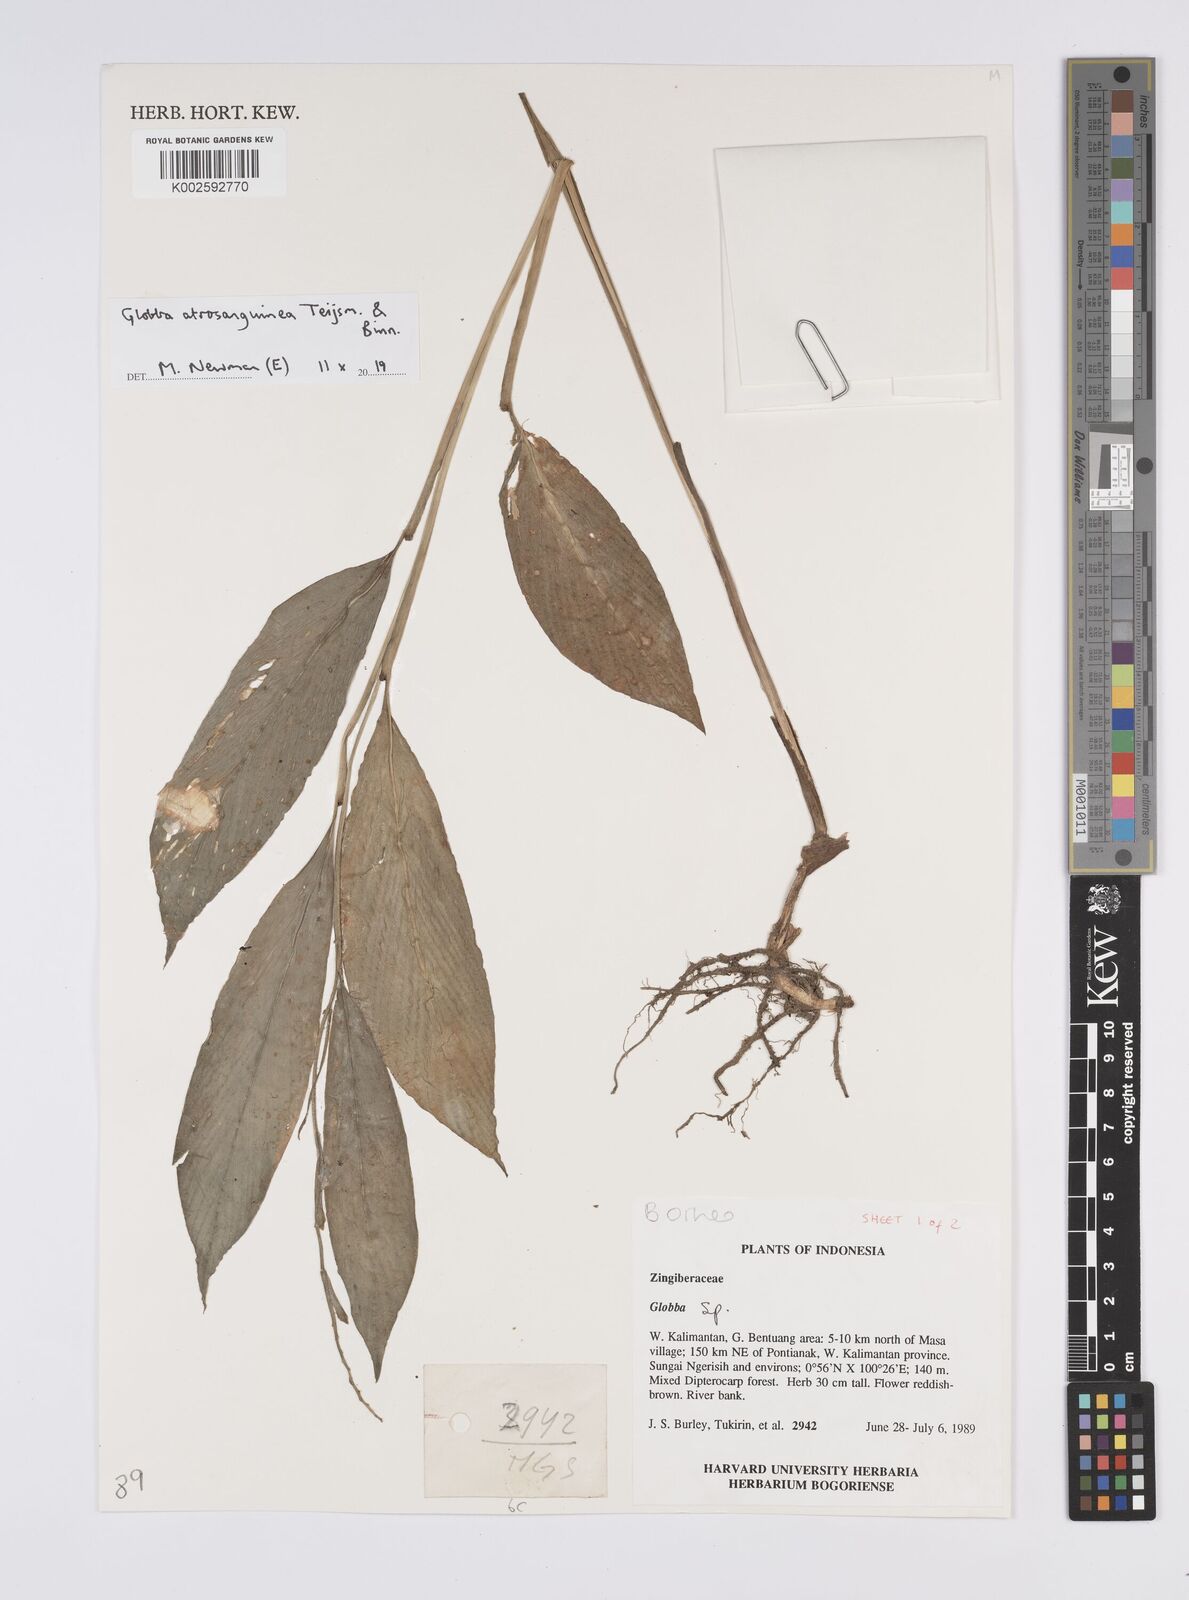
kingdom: Plantae
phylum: Tracheophyta
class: Liliopsida
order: Zingiberales
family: Zingiberaceae
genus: Globba
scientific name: Globba atrosanguinea
